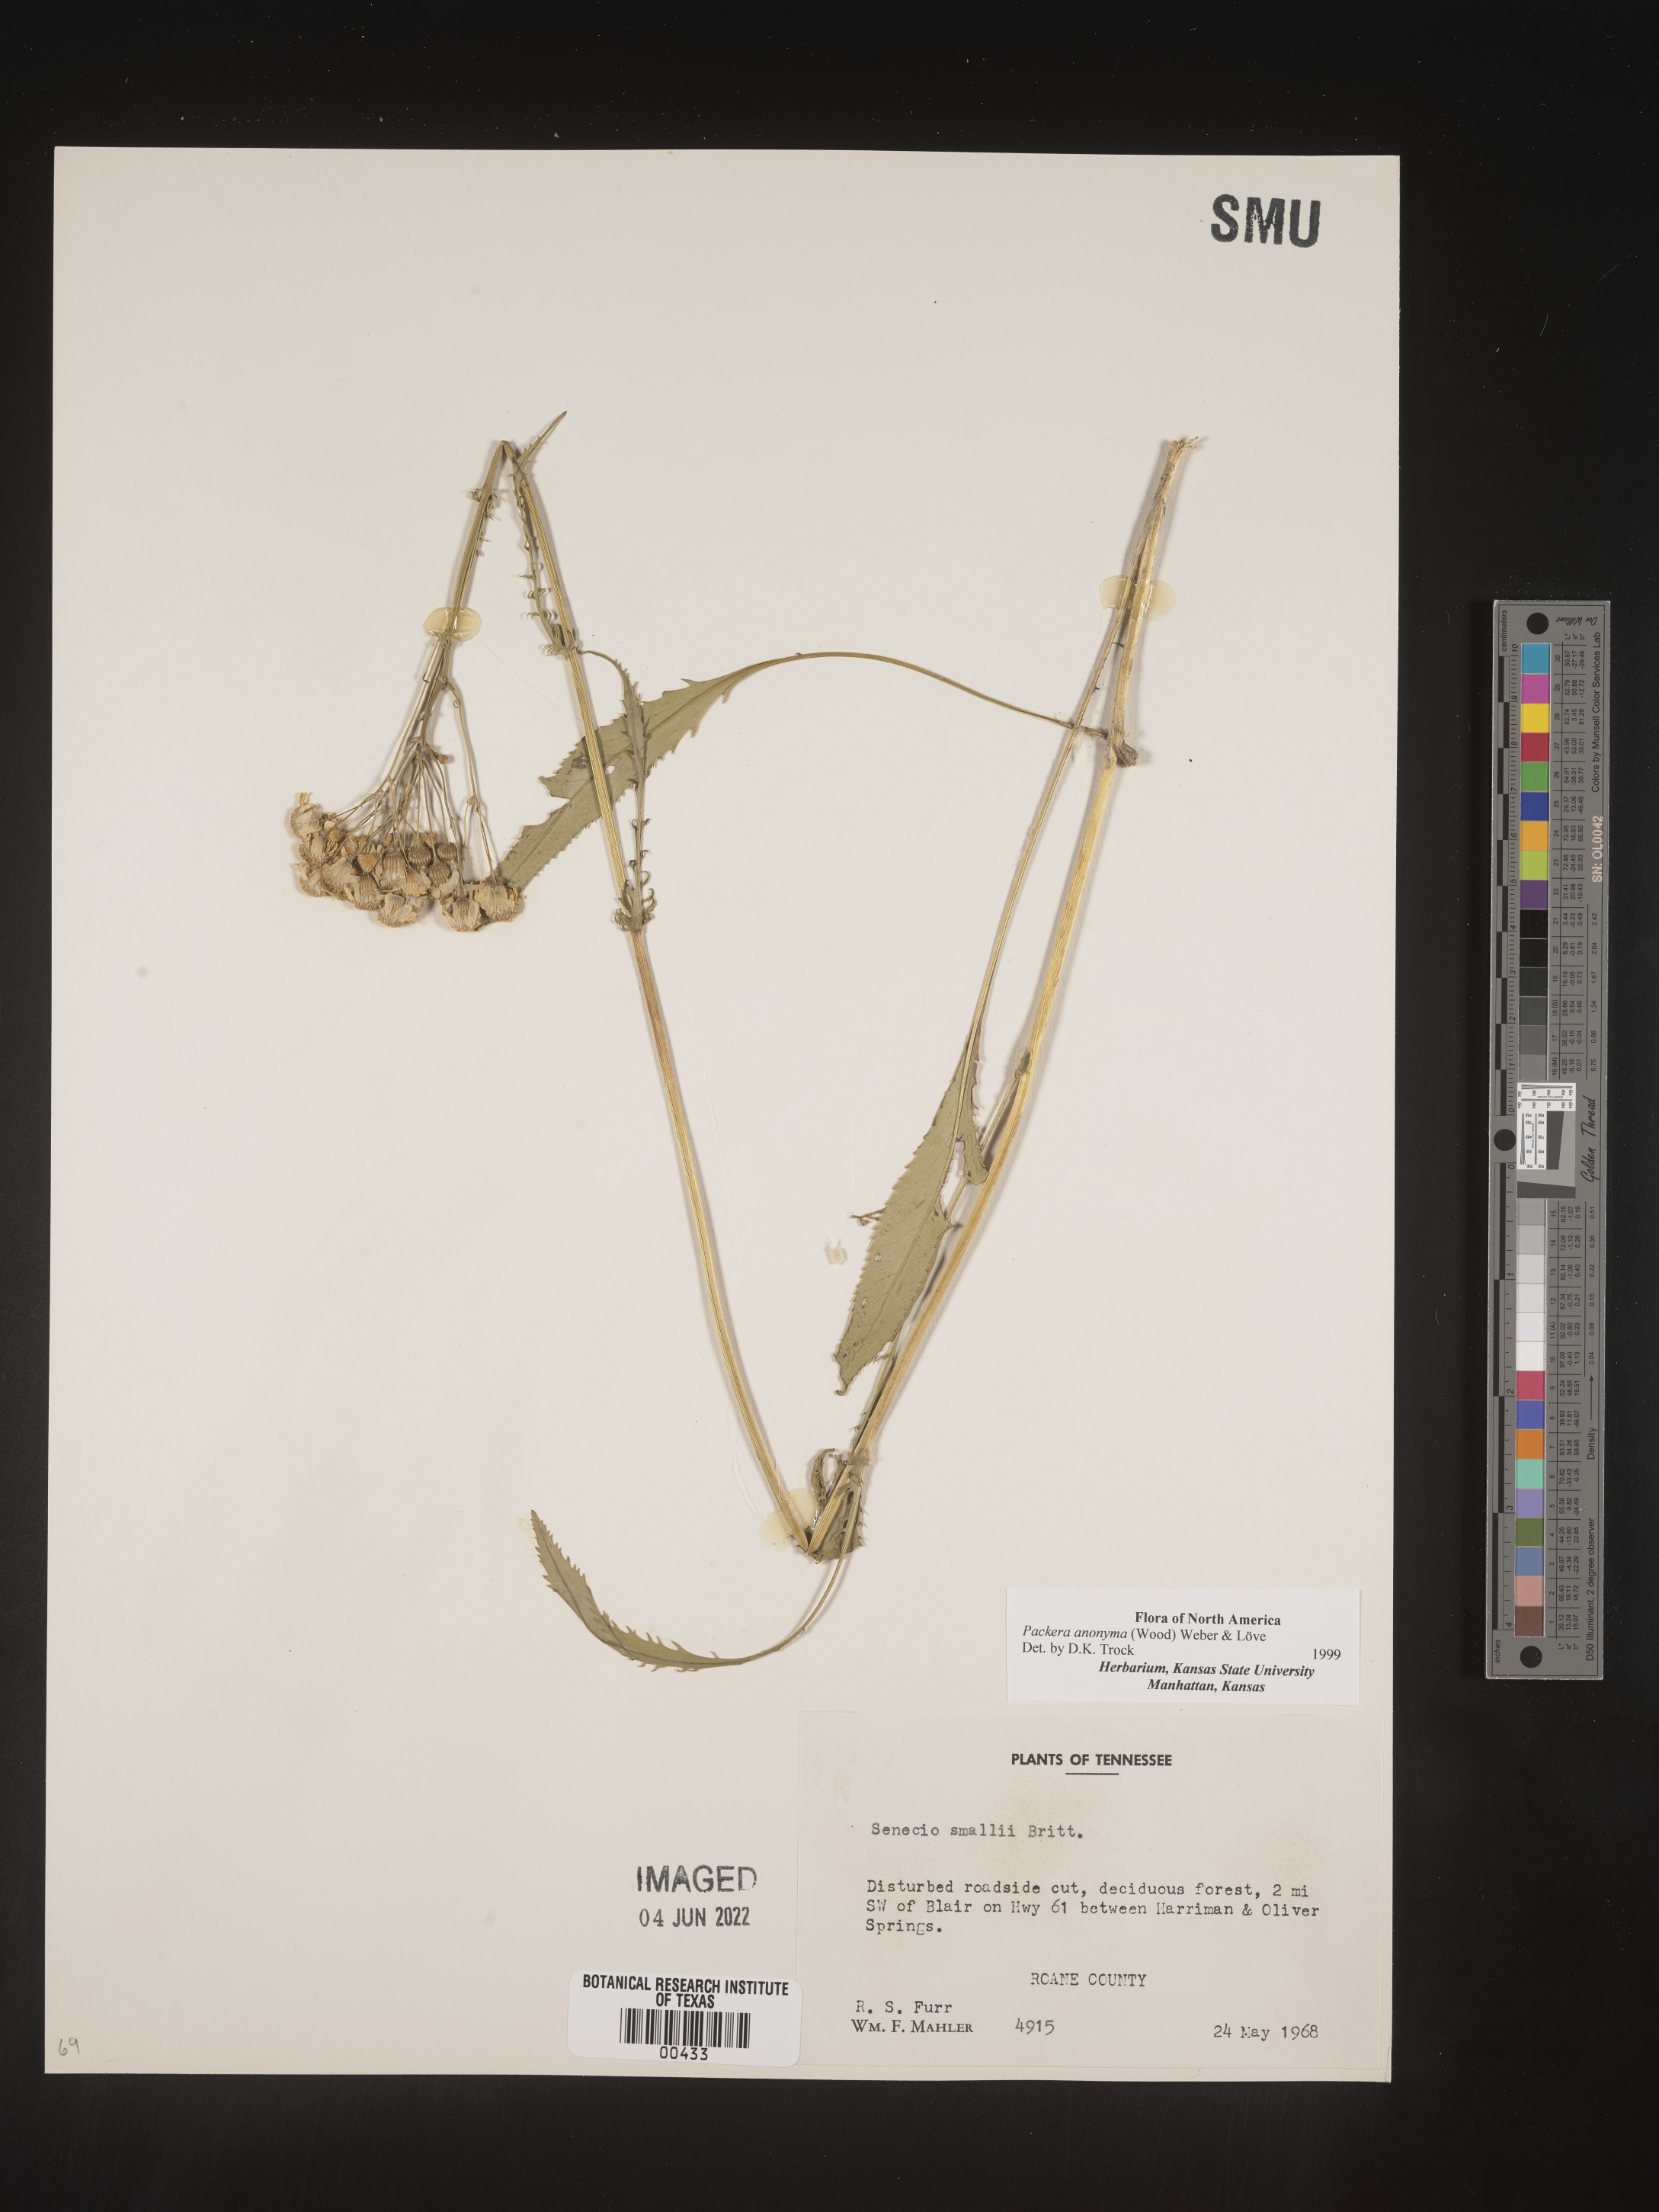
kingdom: Plantae
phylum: Tracheophyta
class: Magnoliopsida
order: Asterales
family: Asteraceae
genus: Packera
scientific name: Packera anonyma
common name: Small ragwort
